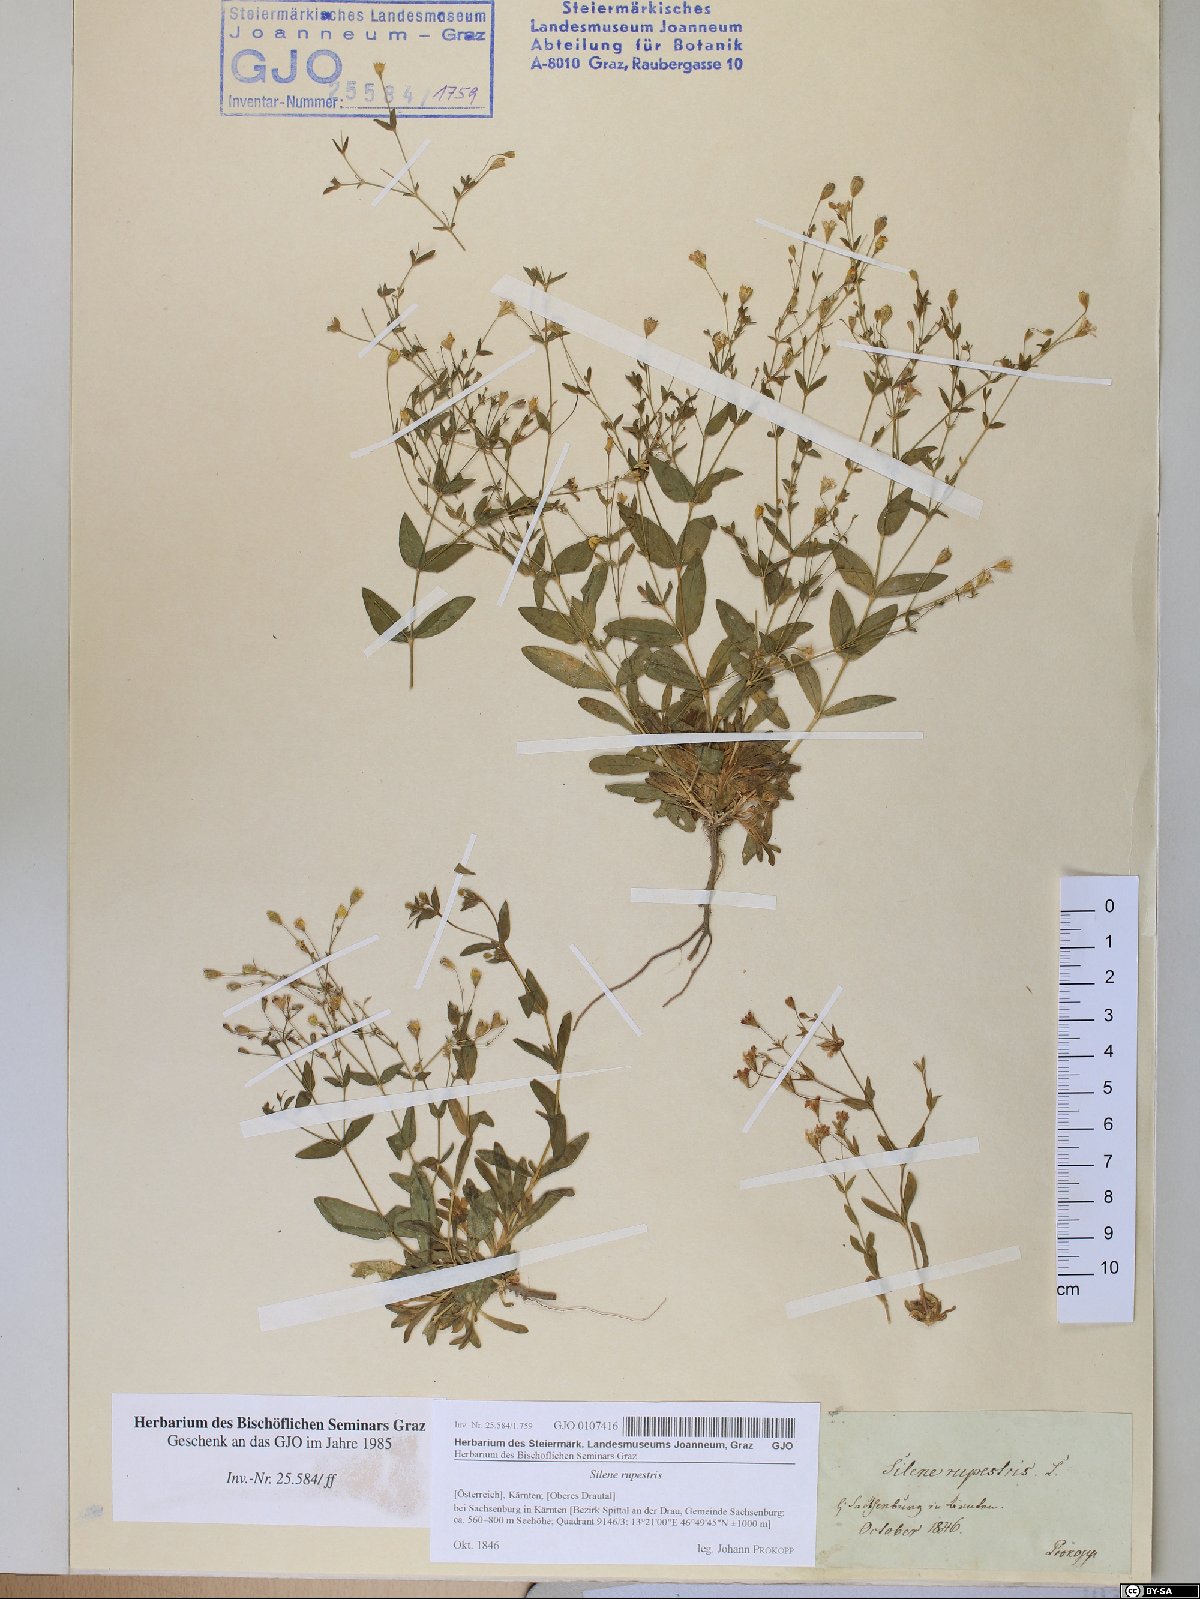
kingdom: Plantae
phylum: Tracheophyta
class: Magnoliopsida
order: Caryophyllales
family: Caryophyllaceae
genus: Atocion
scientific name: Atocion rupestre
